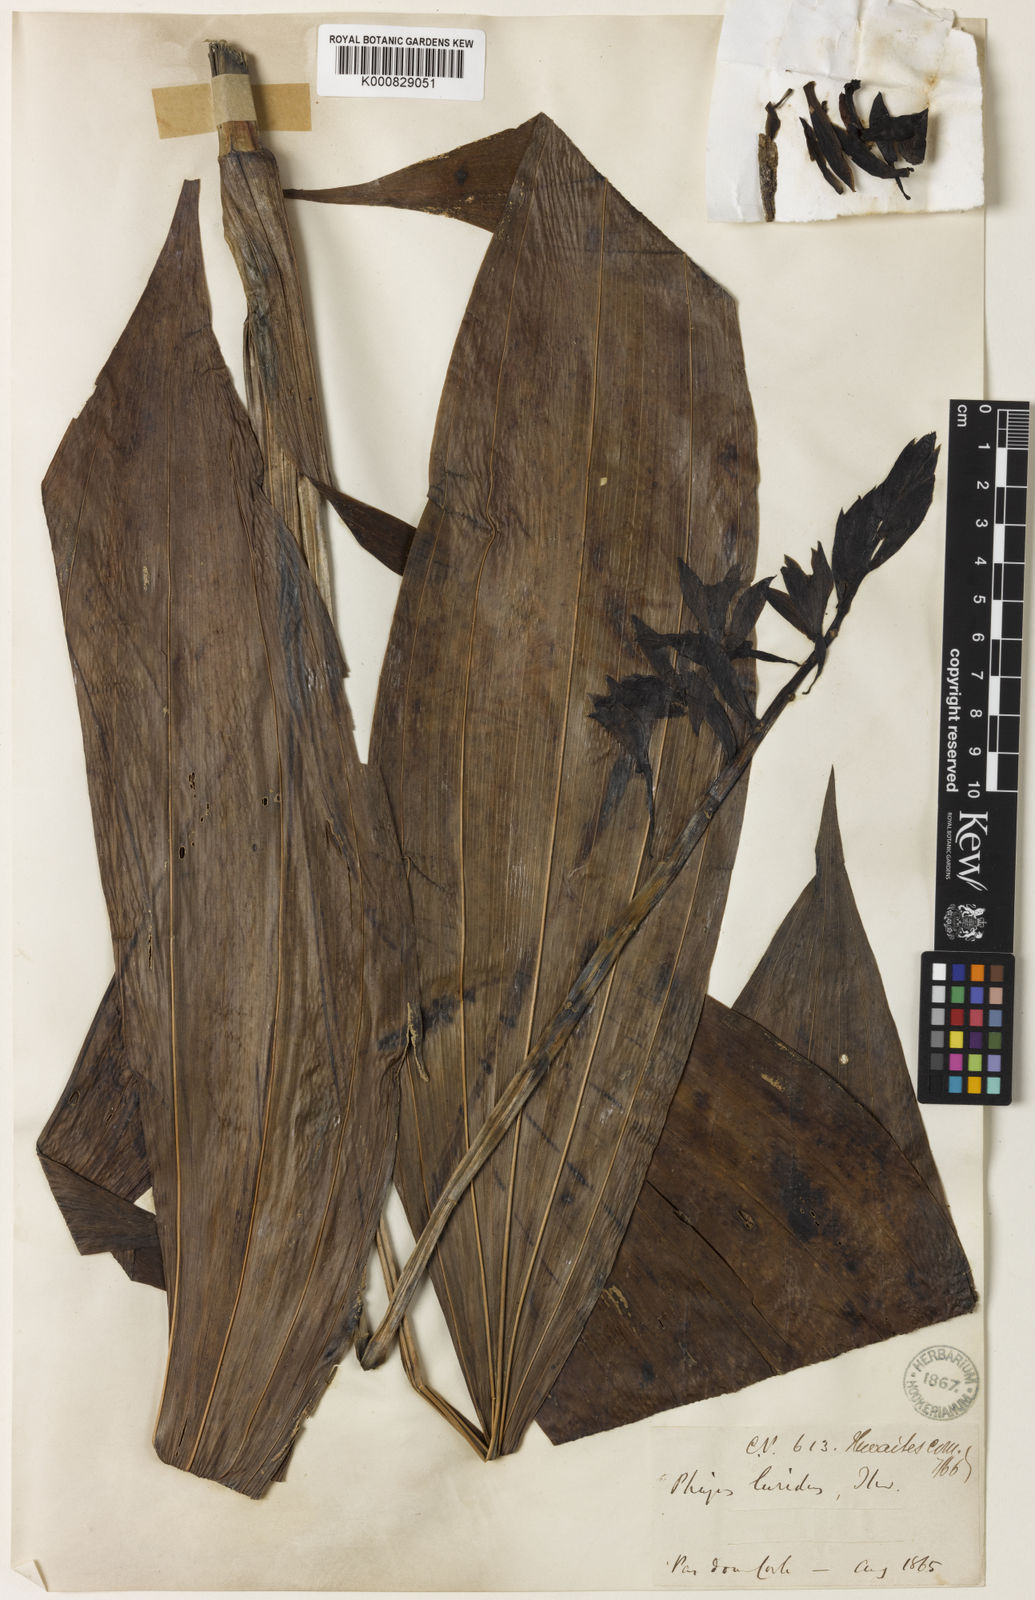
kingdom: Plantae
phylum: Tracheophyta
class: Liliopsida
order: Asparagales
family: Orchidaceae
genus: Calanthe
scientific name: Calanthe testacea
